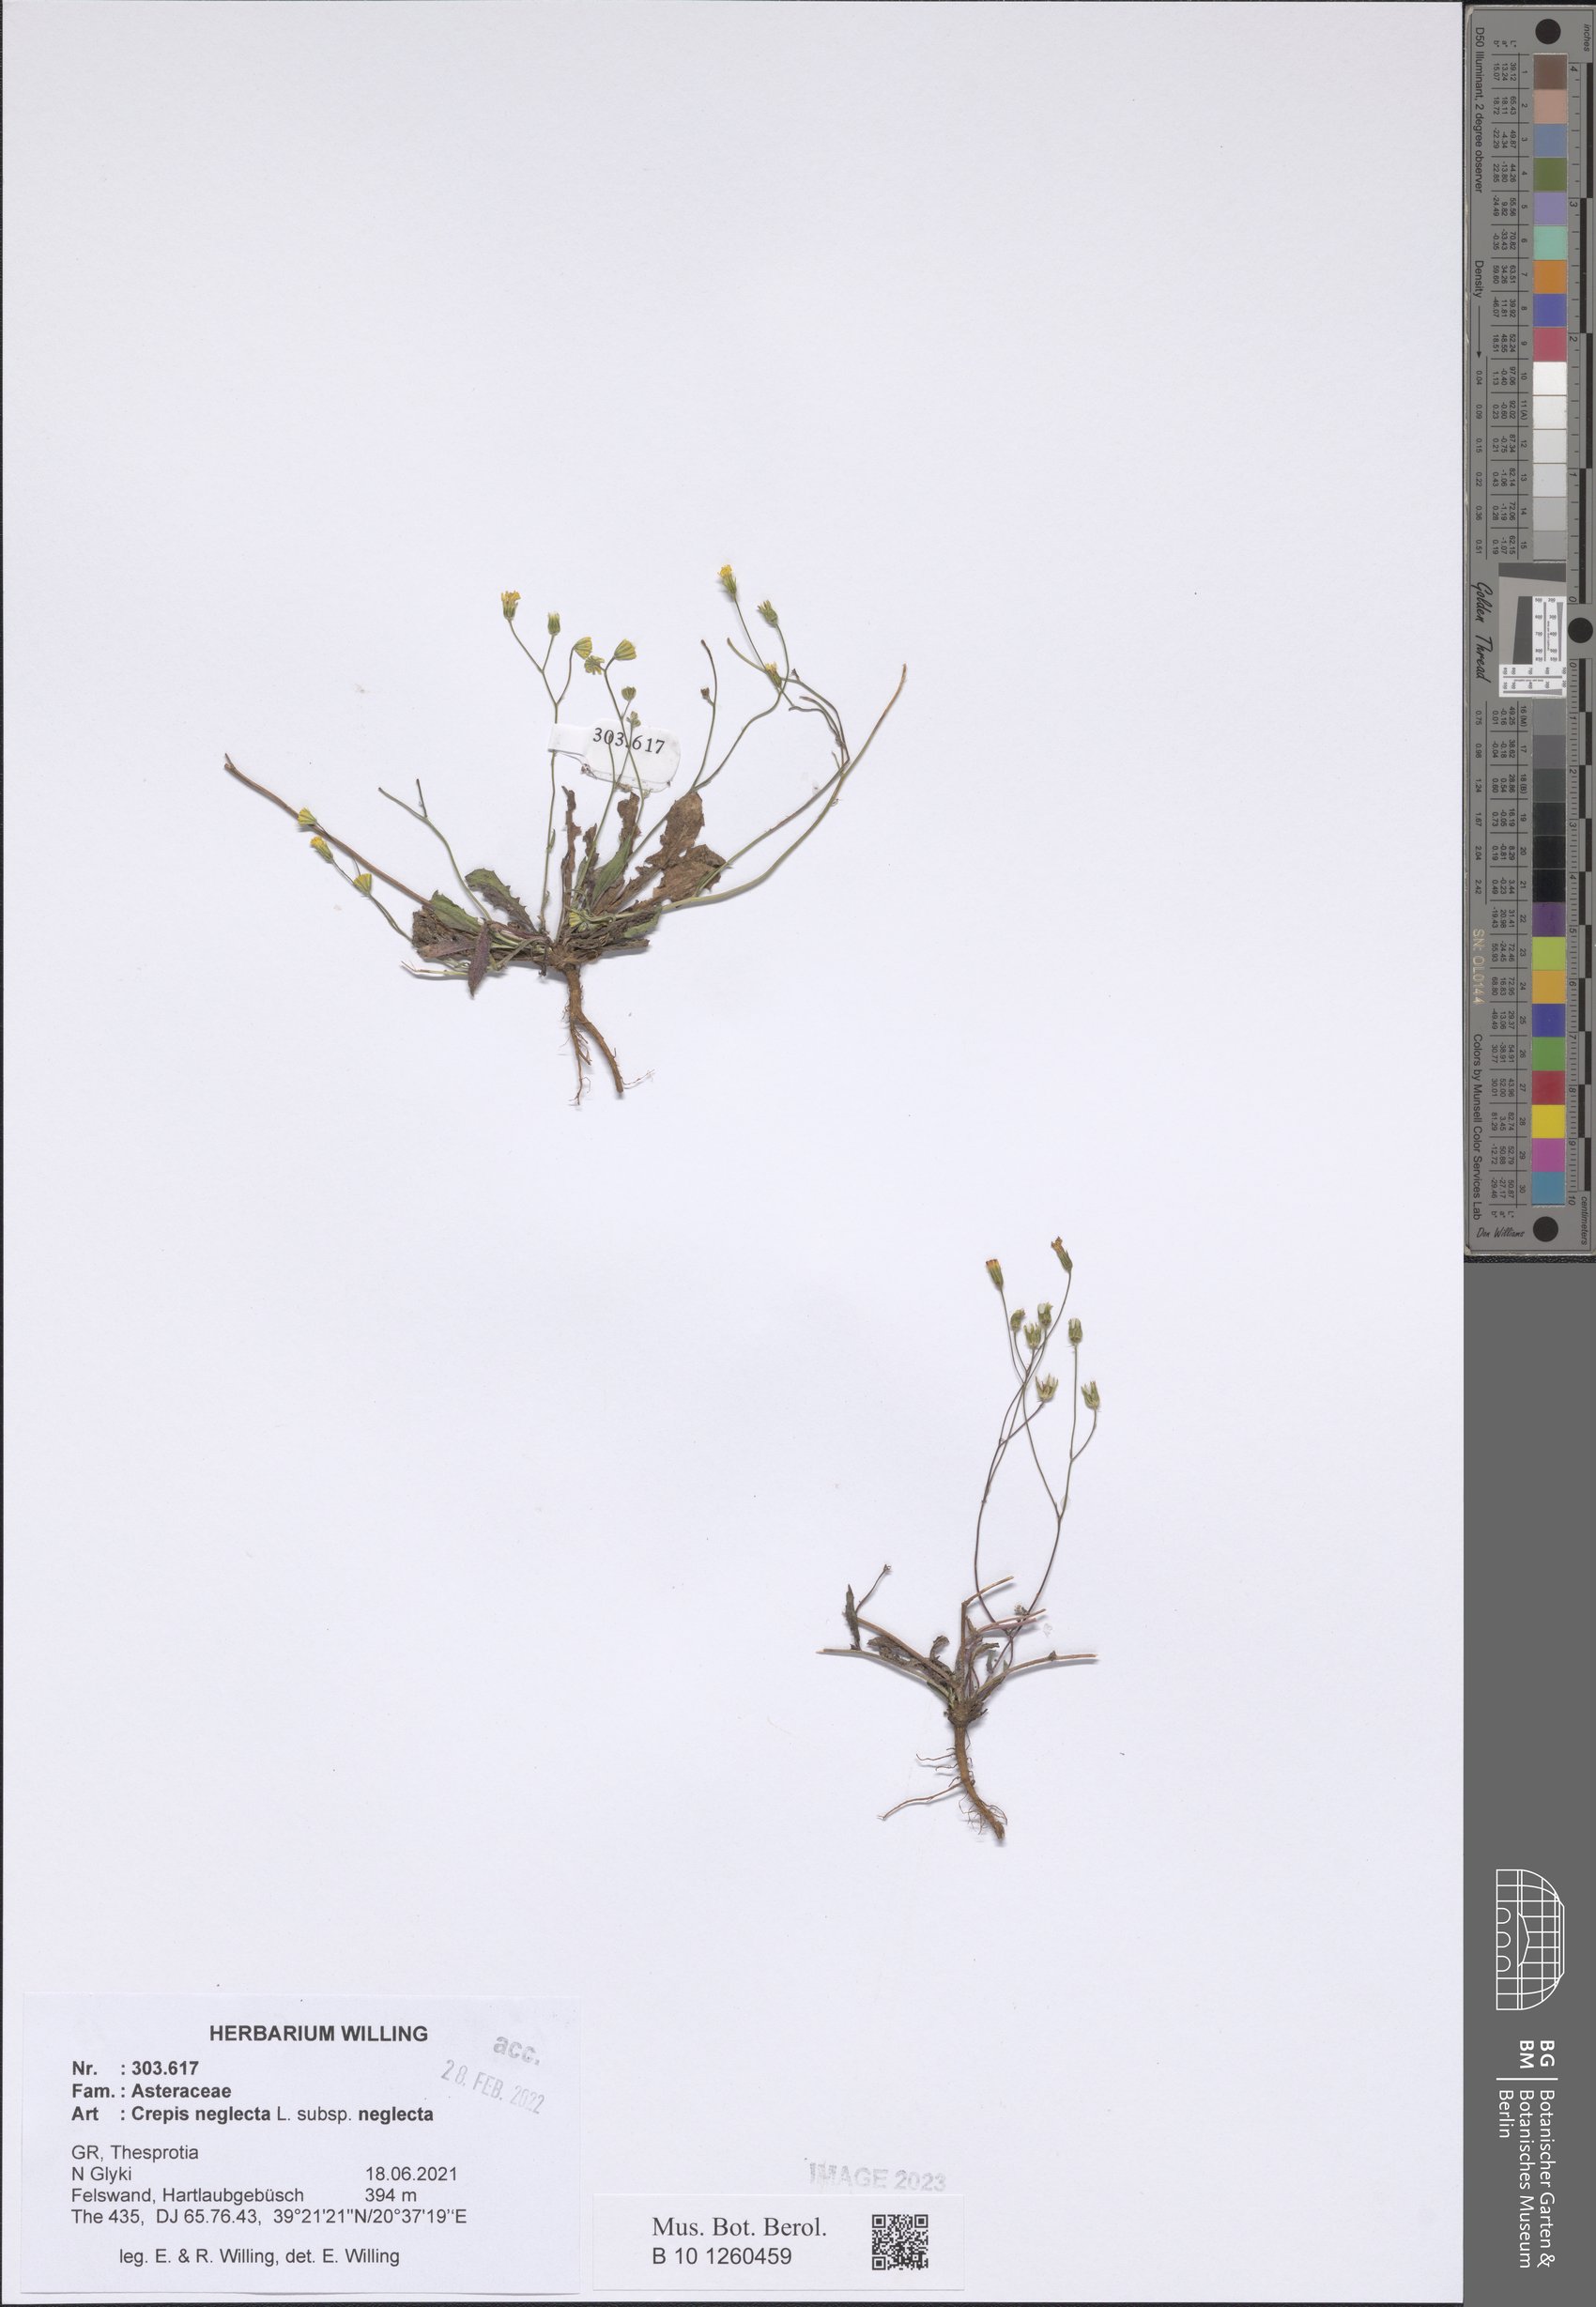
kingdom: Plantae
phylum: Tracheophyta
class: Magnoliopsida
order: Asterales
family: Asteraceae
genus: Crepis
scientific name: Crepis neglecta
